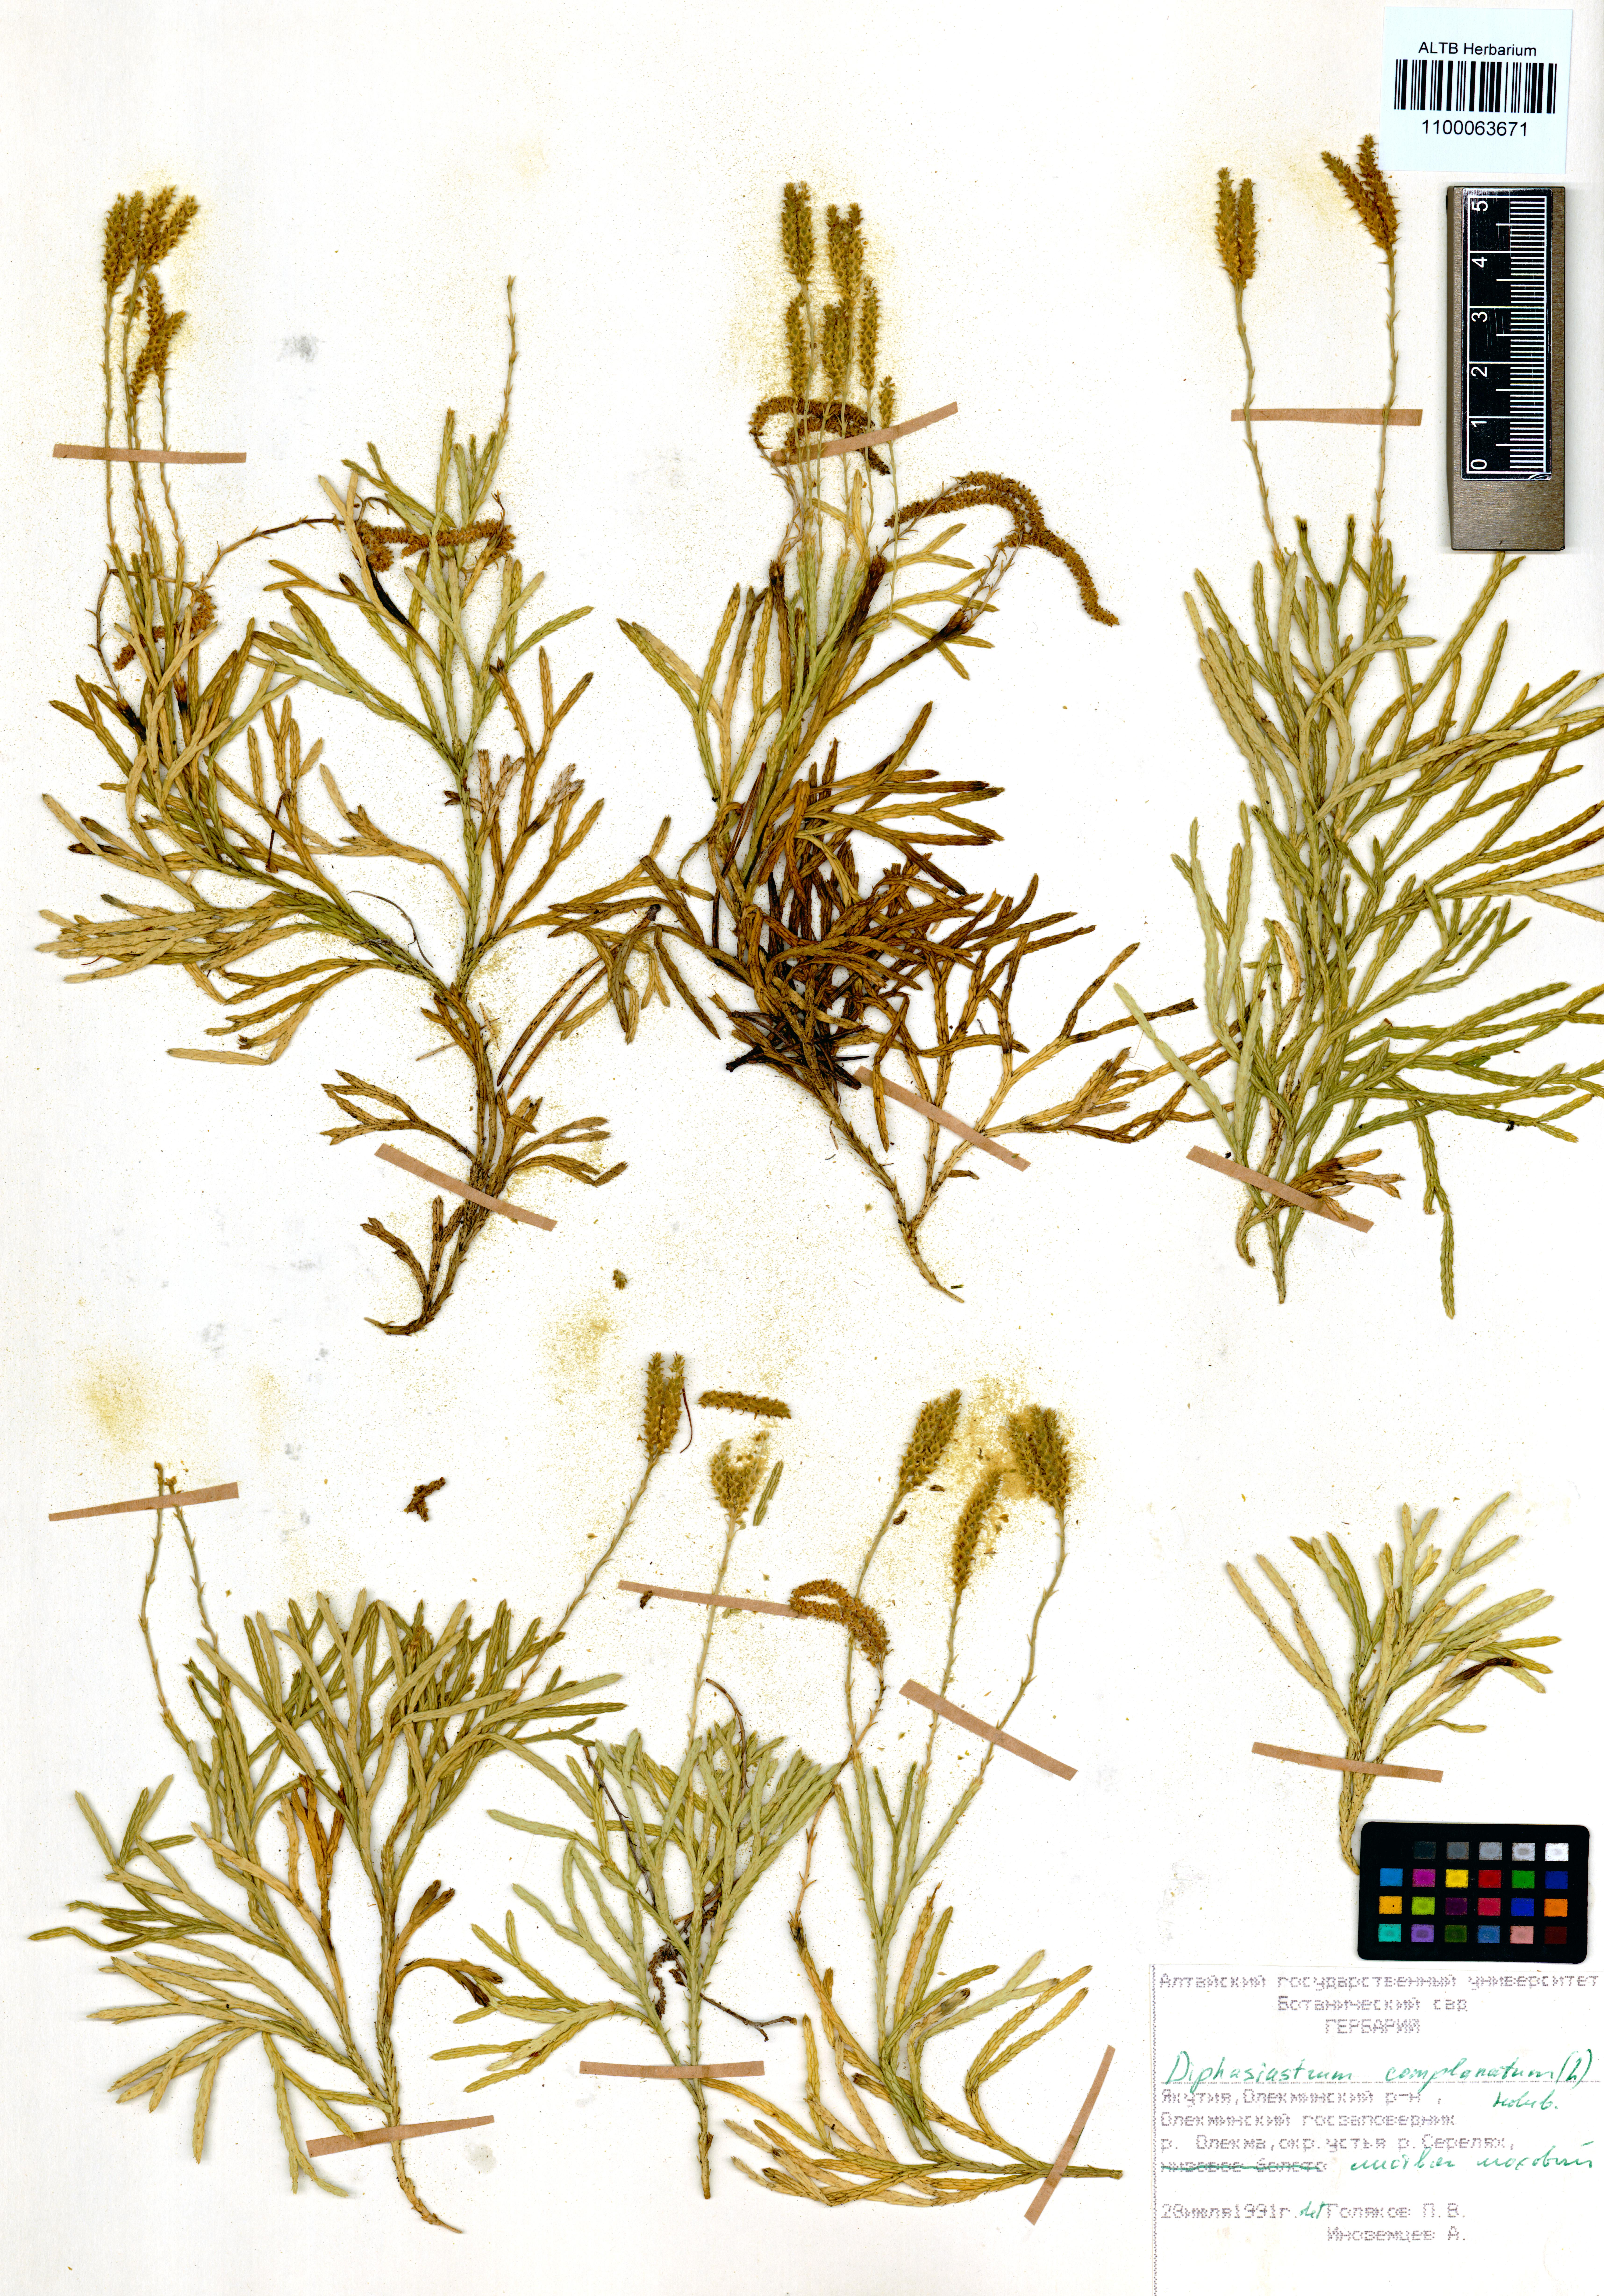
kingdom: Plantae
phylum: Tracheophyta
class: Lycopodiopsida
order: Lycopodiales
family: Lycopodiaceae
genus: Diphasiastrum
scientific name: Diphasiastrum complanatum
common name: Northern running-pine
